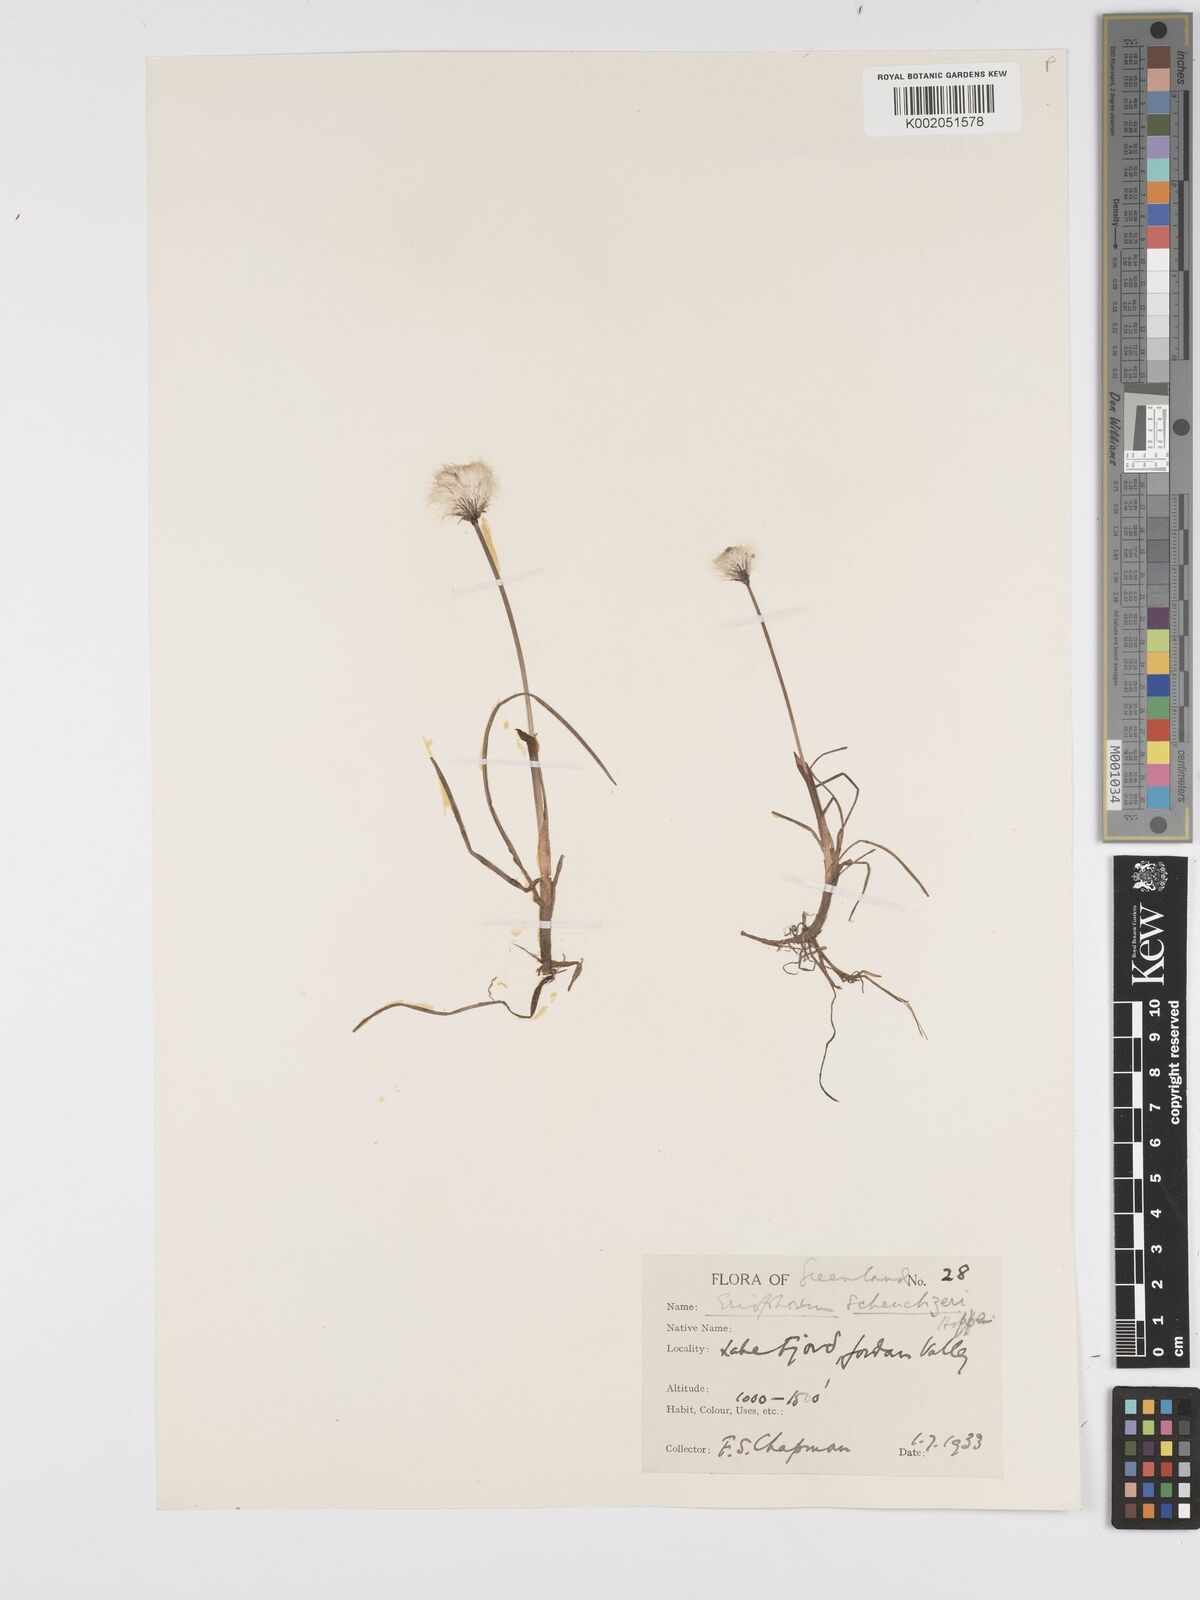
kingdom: Plantae
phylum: Tracheophyta
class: Liliopsida
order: Poales
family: Cyperaceae
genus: Eriophorum
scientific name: Eriophorum scheuchzeri
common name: Scheuchzer's cottongrass
